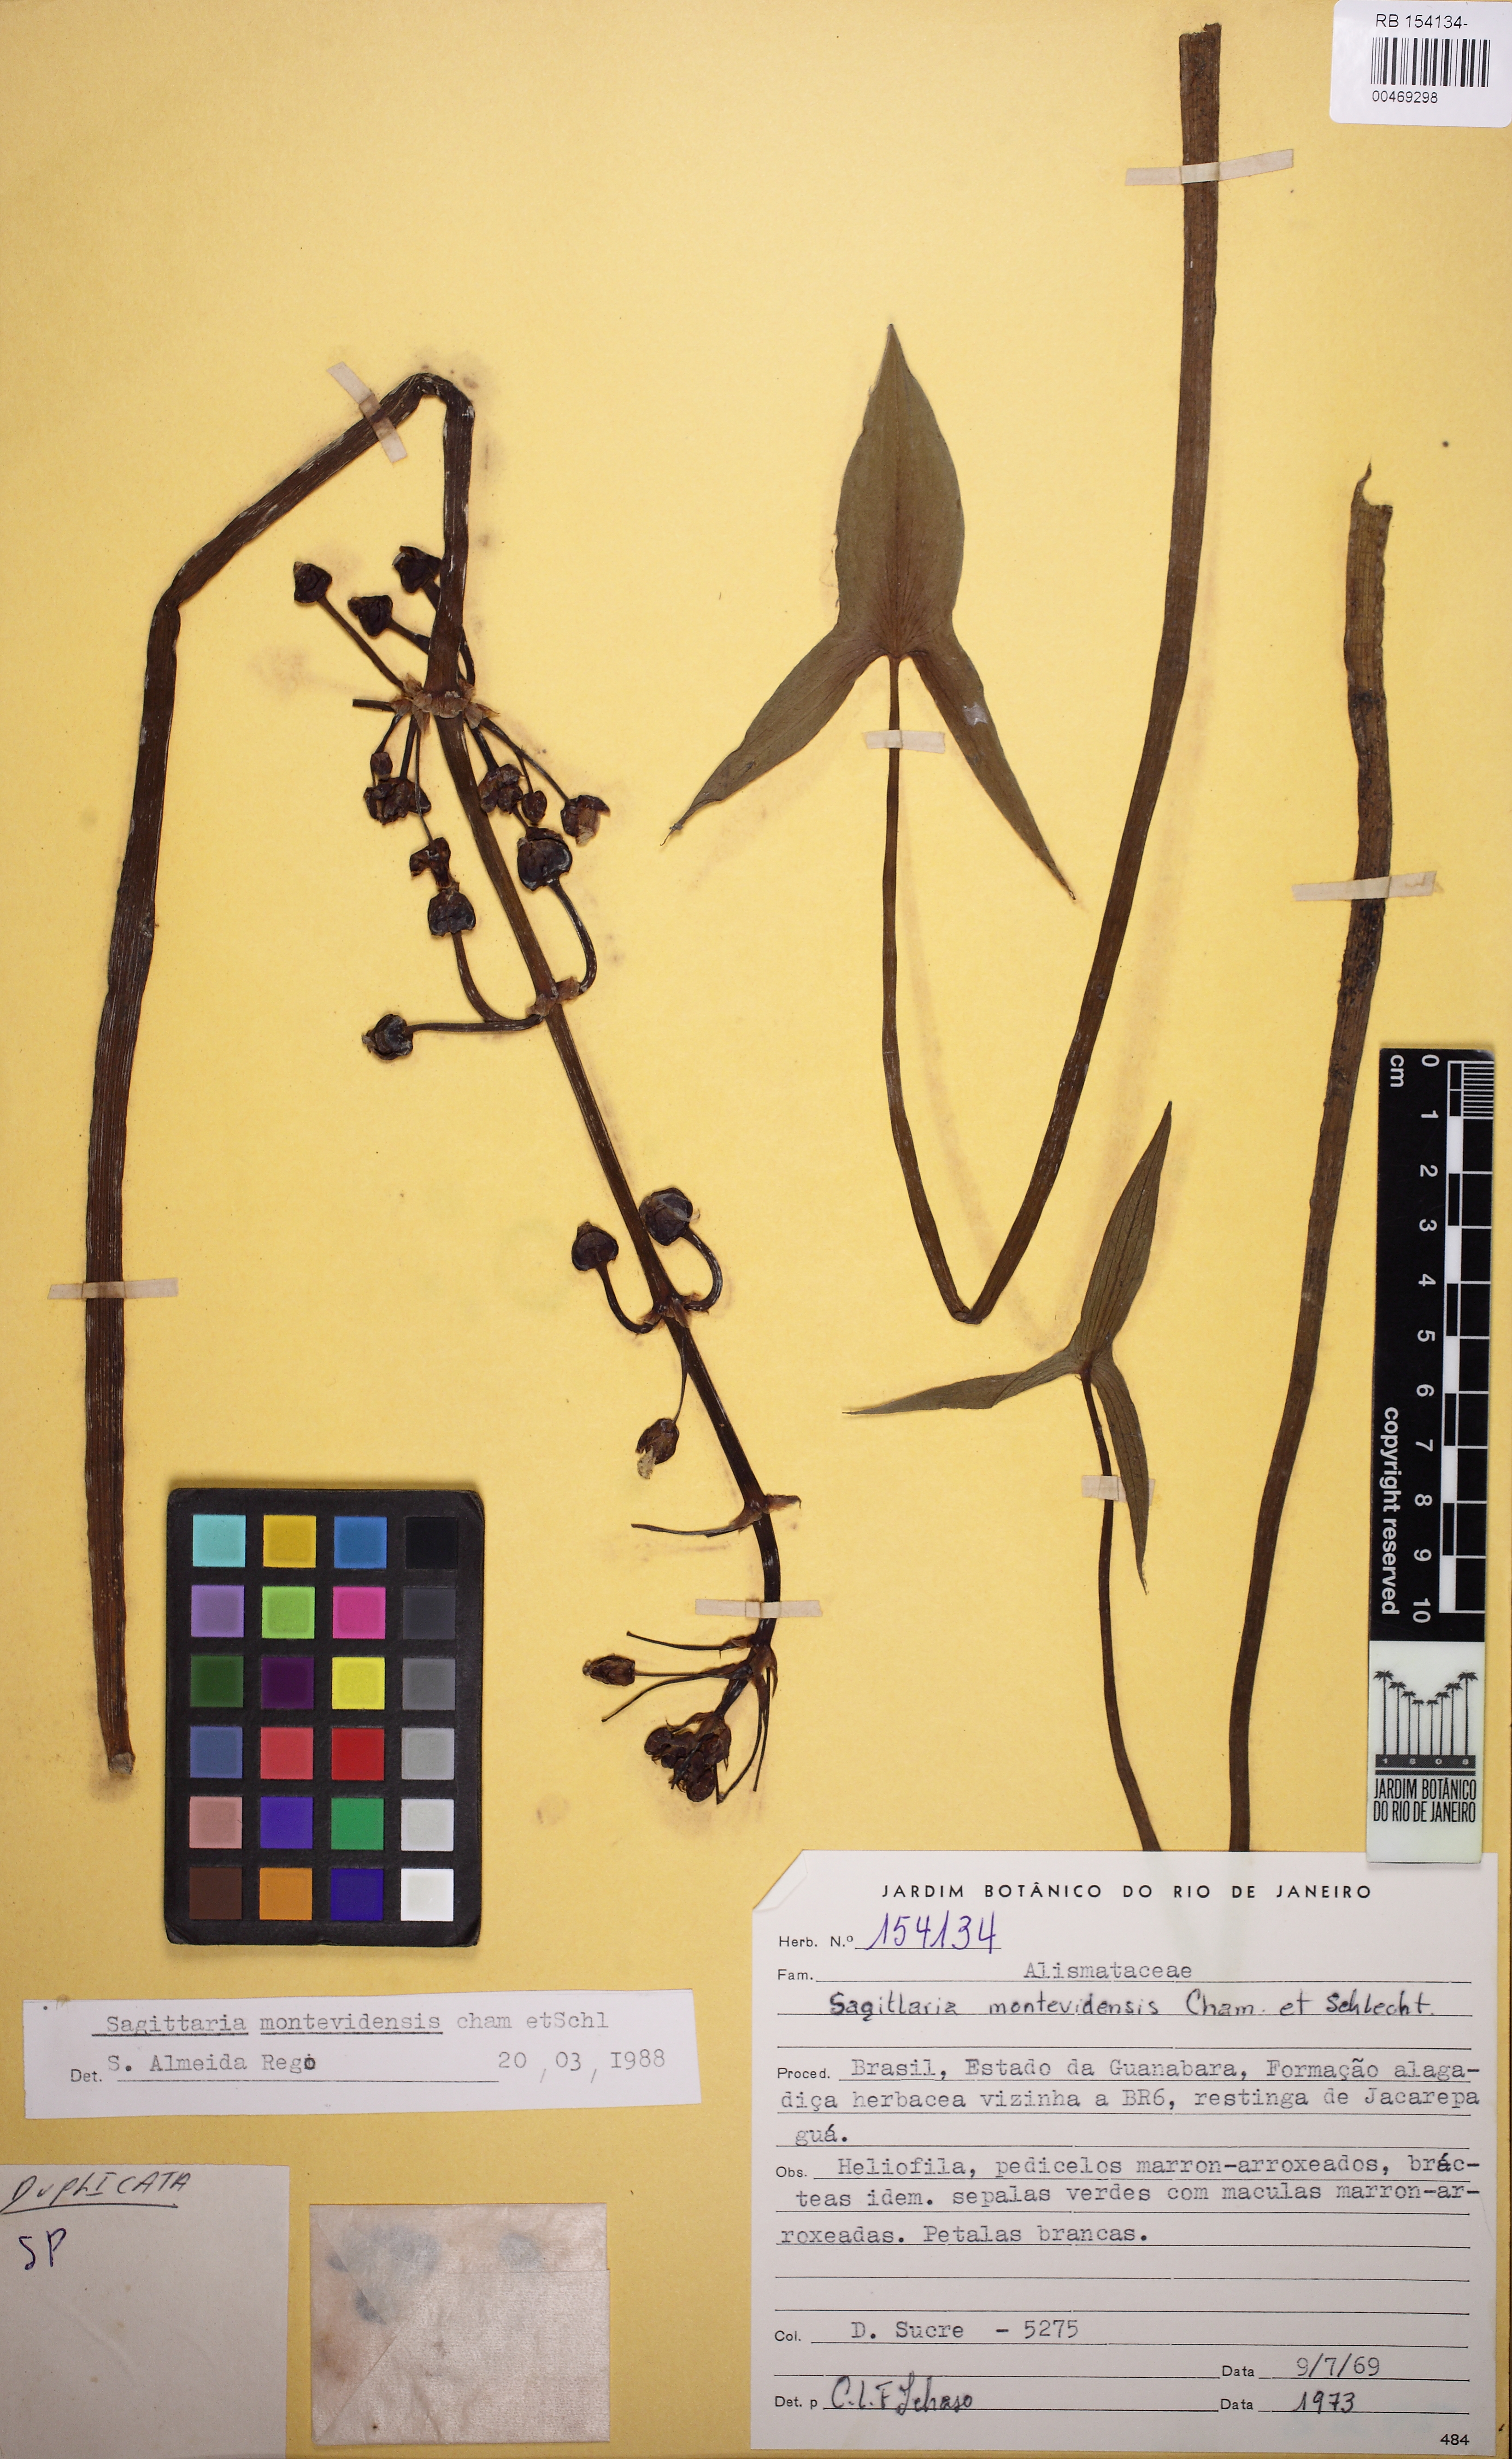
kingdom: Plantae
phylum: Tracheophyta
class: Liliopsida
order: Alismatales
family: Alismataceae
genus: Sagittaria
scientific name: Sagittaria montevidensis
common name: Giant arrowhead
